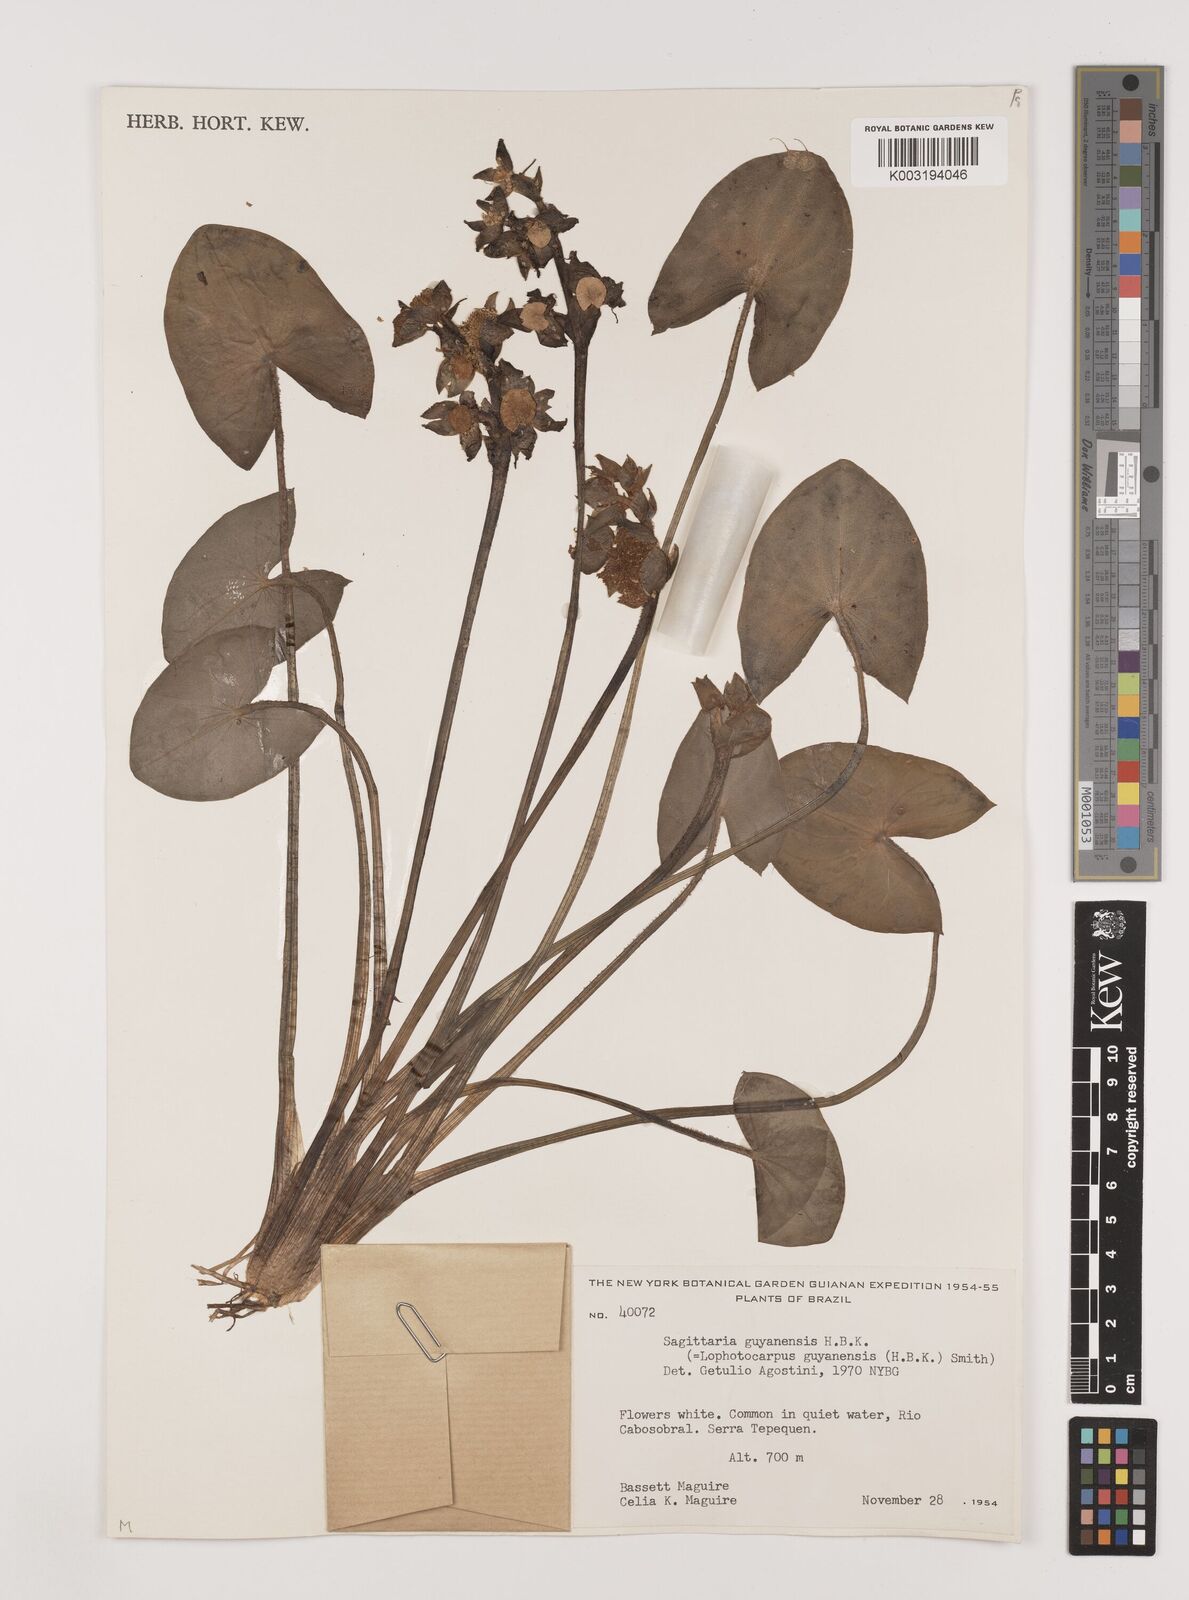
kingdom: Plantae
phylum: Tracheophyta
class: Liliopsida
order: Alismatales
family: Alismataceae
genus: Sagittaria
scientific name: Sagittaria guayanensis
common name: Guyanese arrowhead
